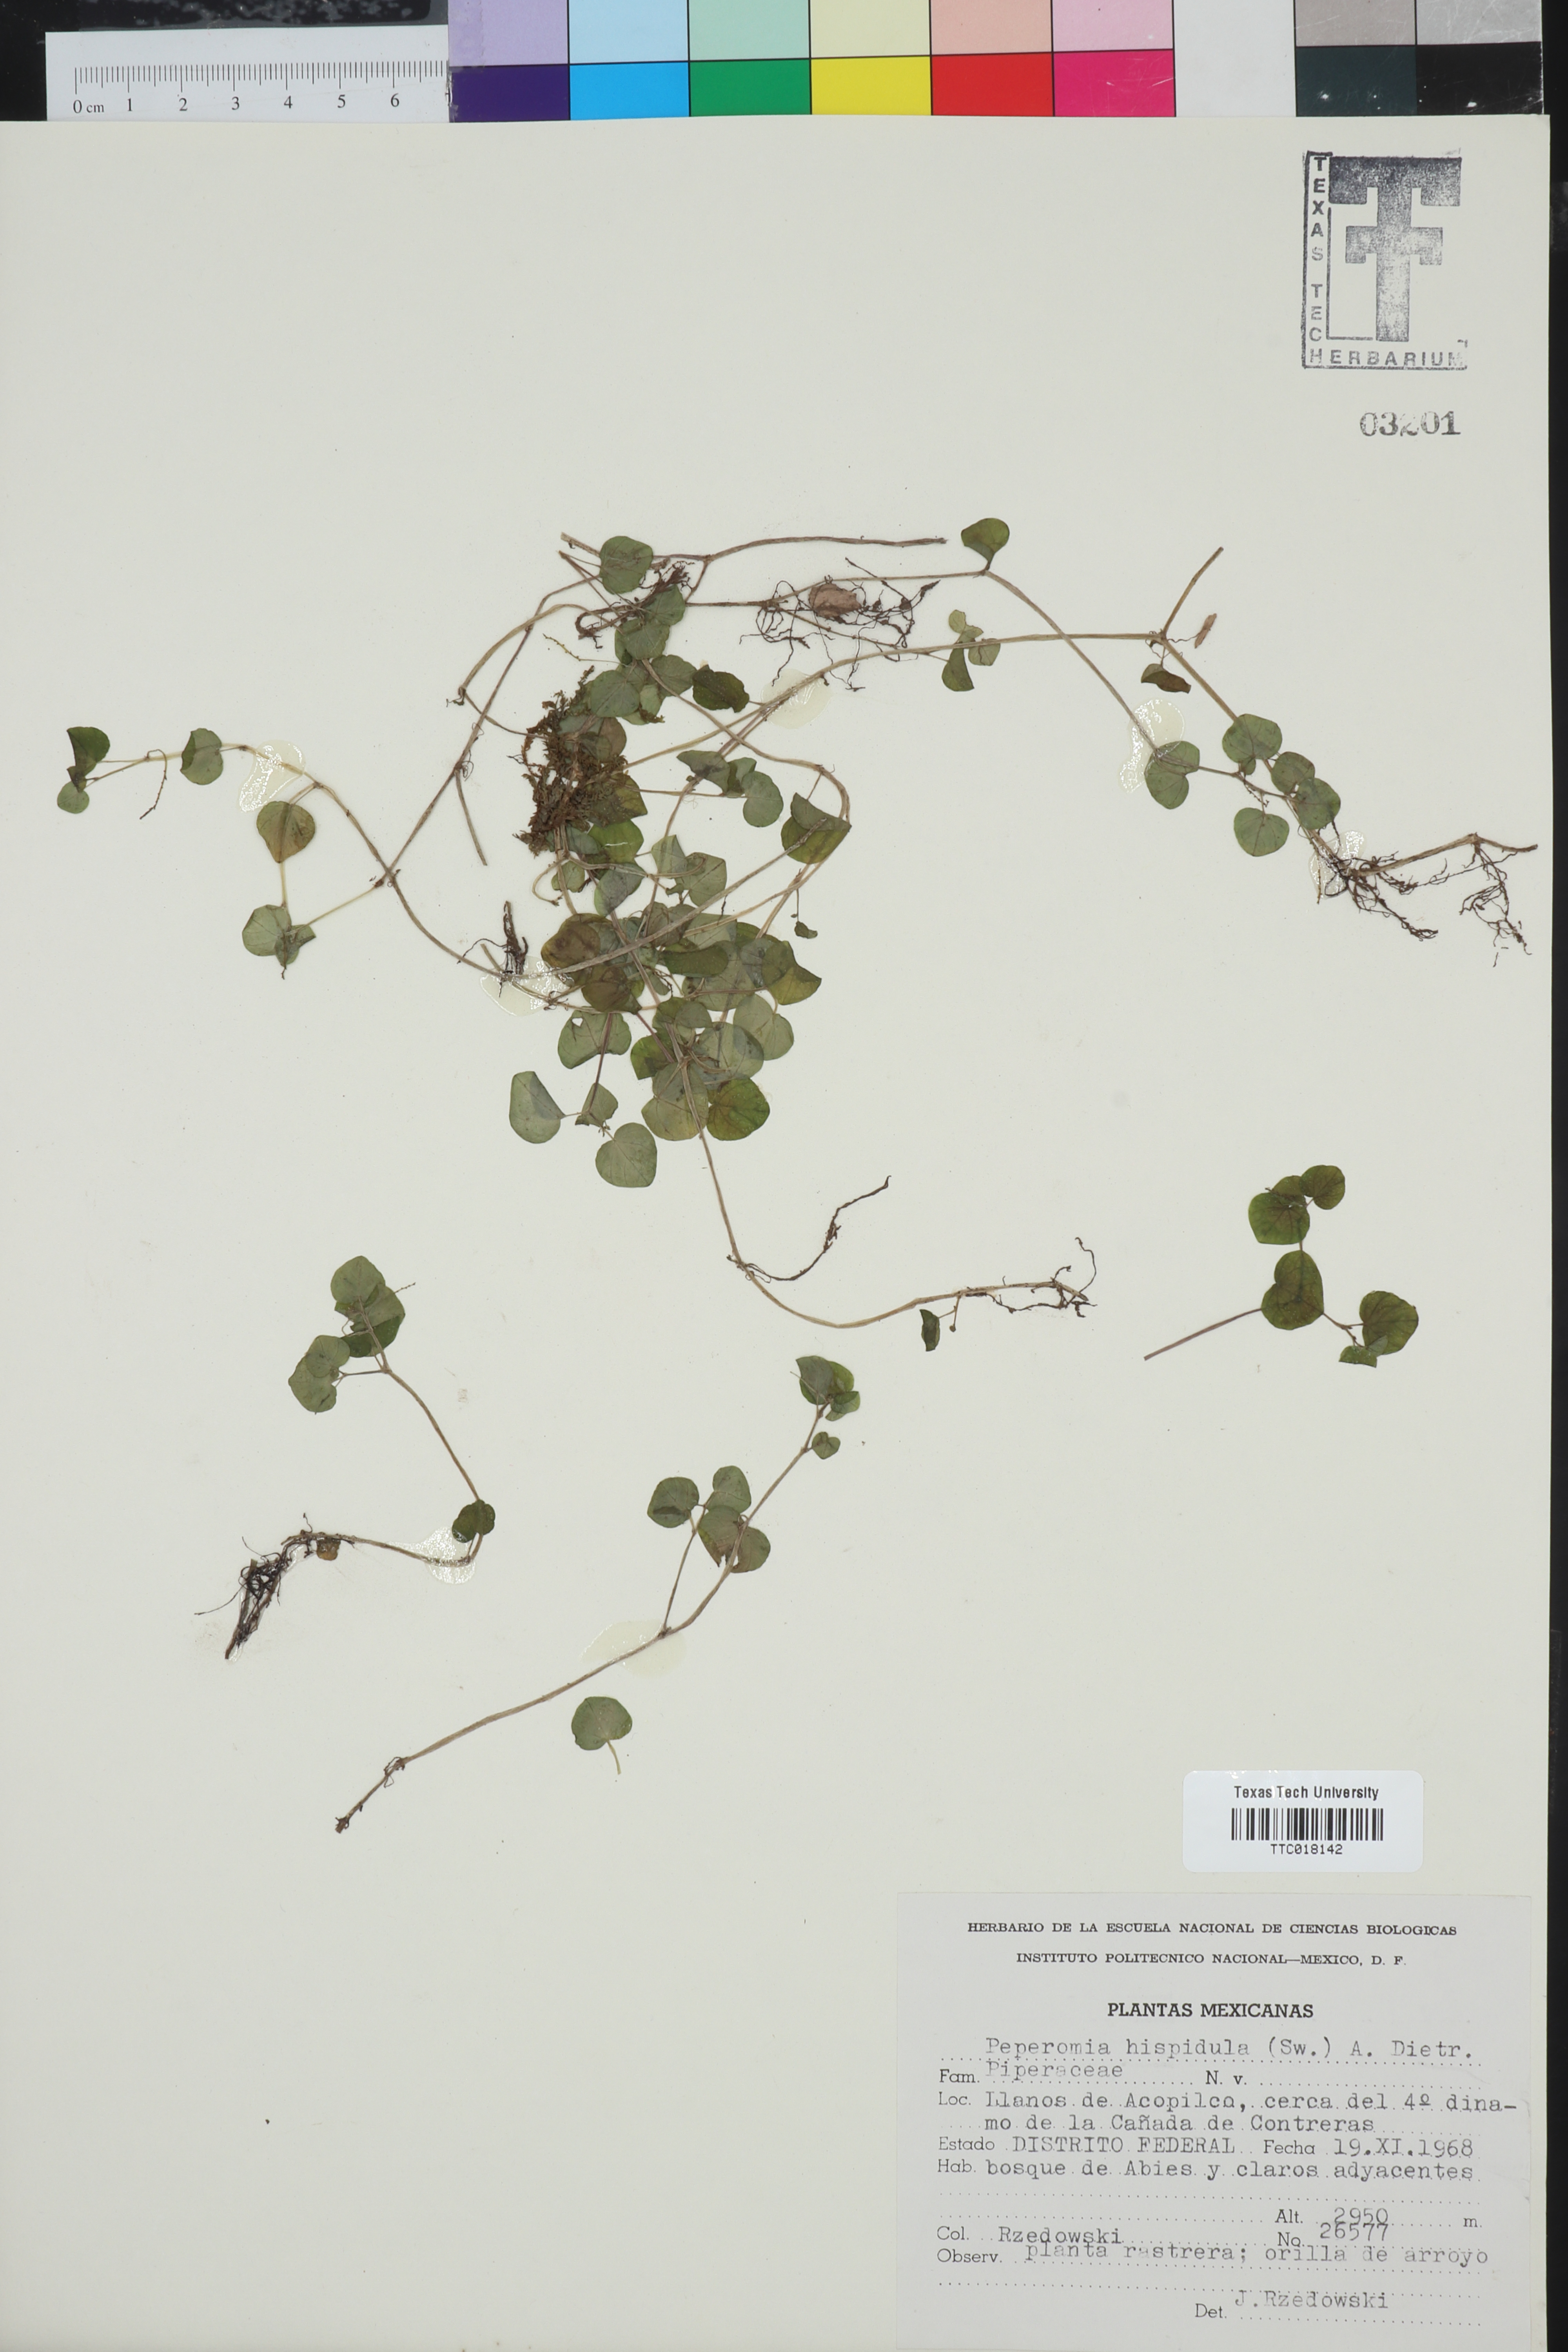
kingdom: Plantae
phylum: Tracheophyta
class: Magnoliopsida
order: Piperales
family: Piperaceae
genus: Peperomia
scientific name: Peperomia hispidula
